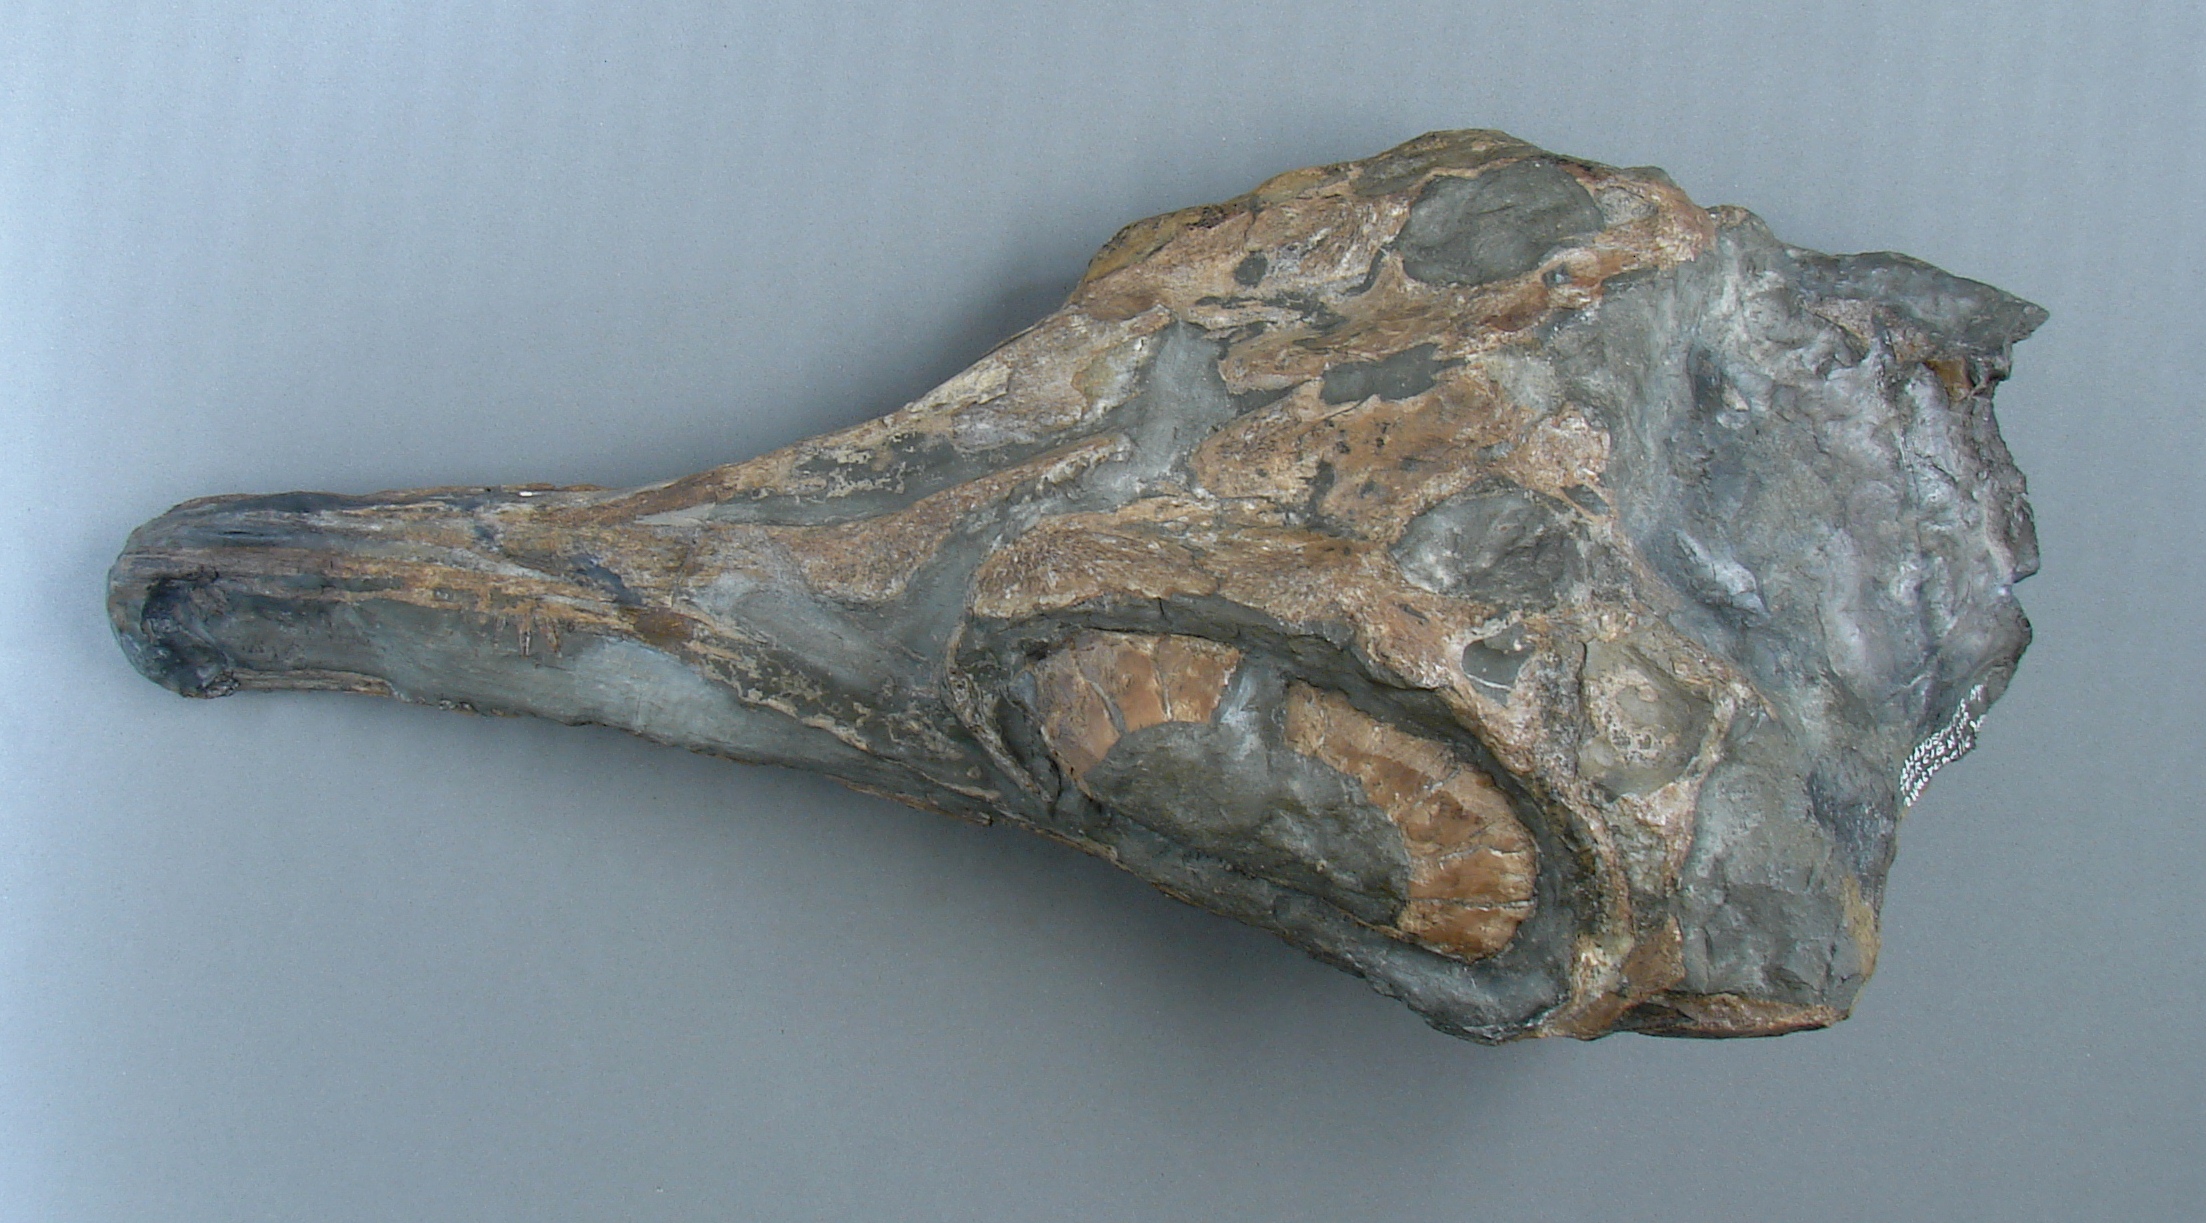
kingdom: Animalia
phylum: Chordata
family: Stenopterygiidae
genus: Stenopterygius
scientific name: Stenopterygius
